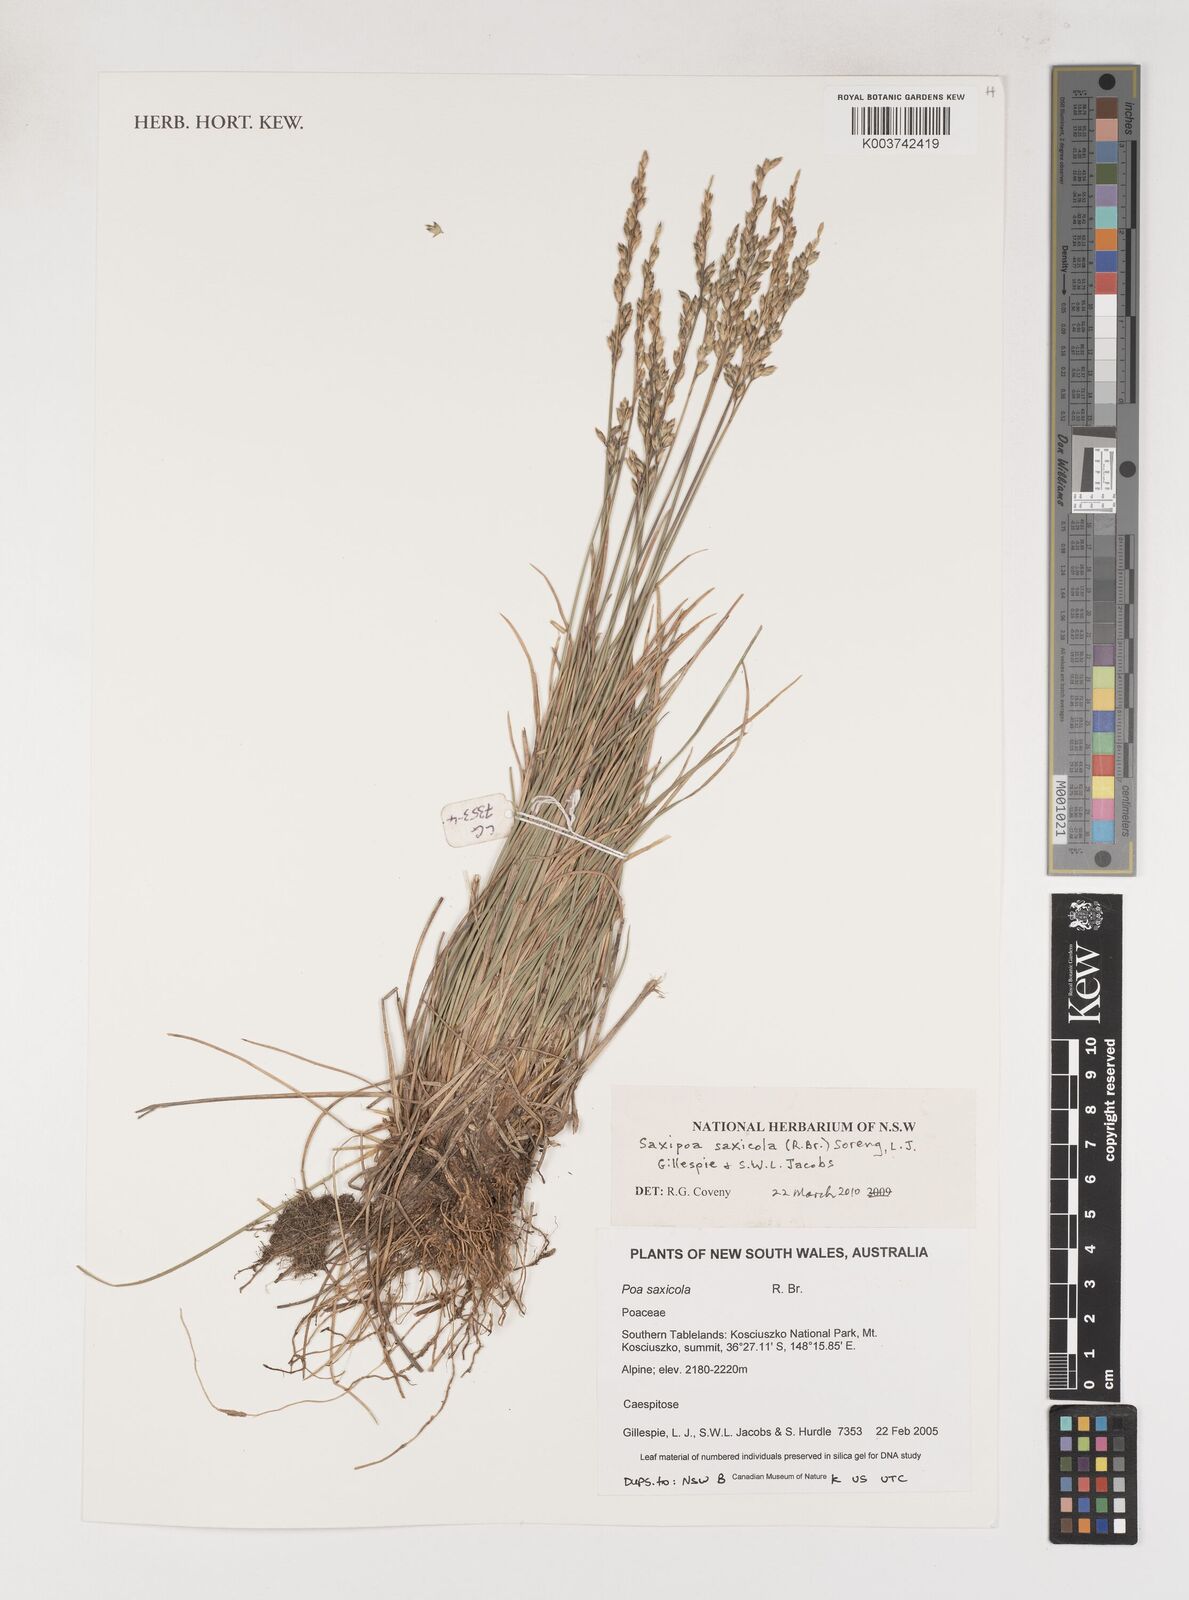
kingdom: Plantae
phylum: Tracheophyta
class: Liliopsida
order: Poales
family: Poaceae
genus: Saxipoa
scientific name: Saxipoa saxicola
